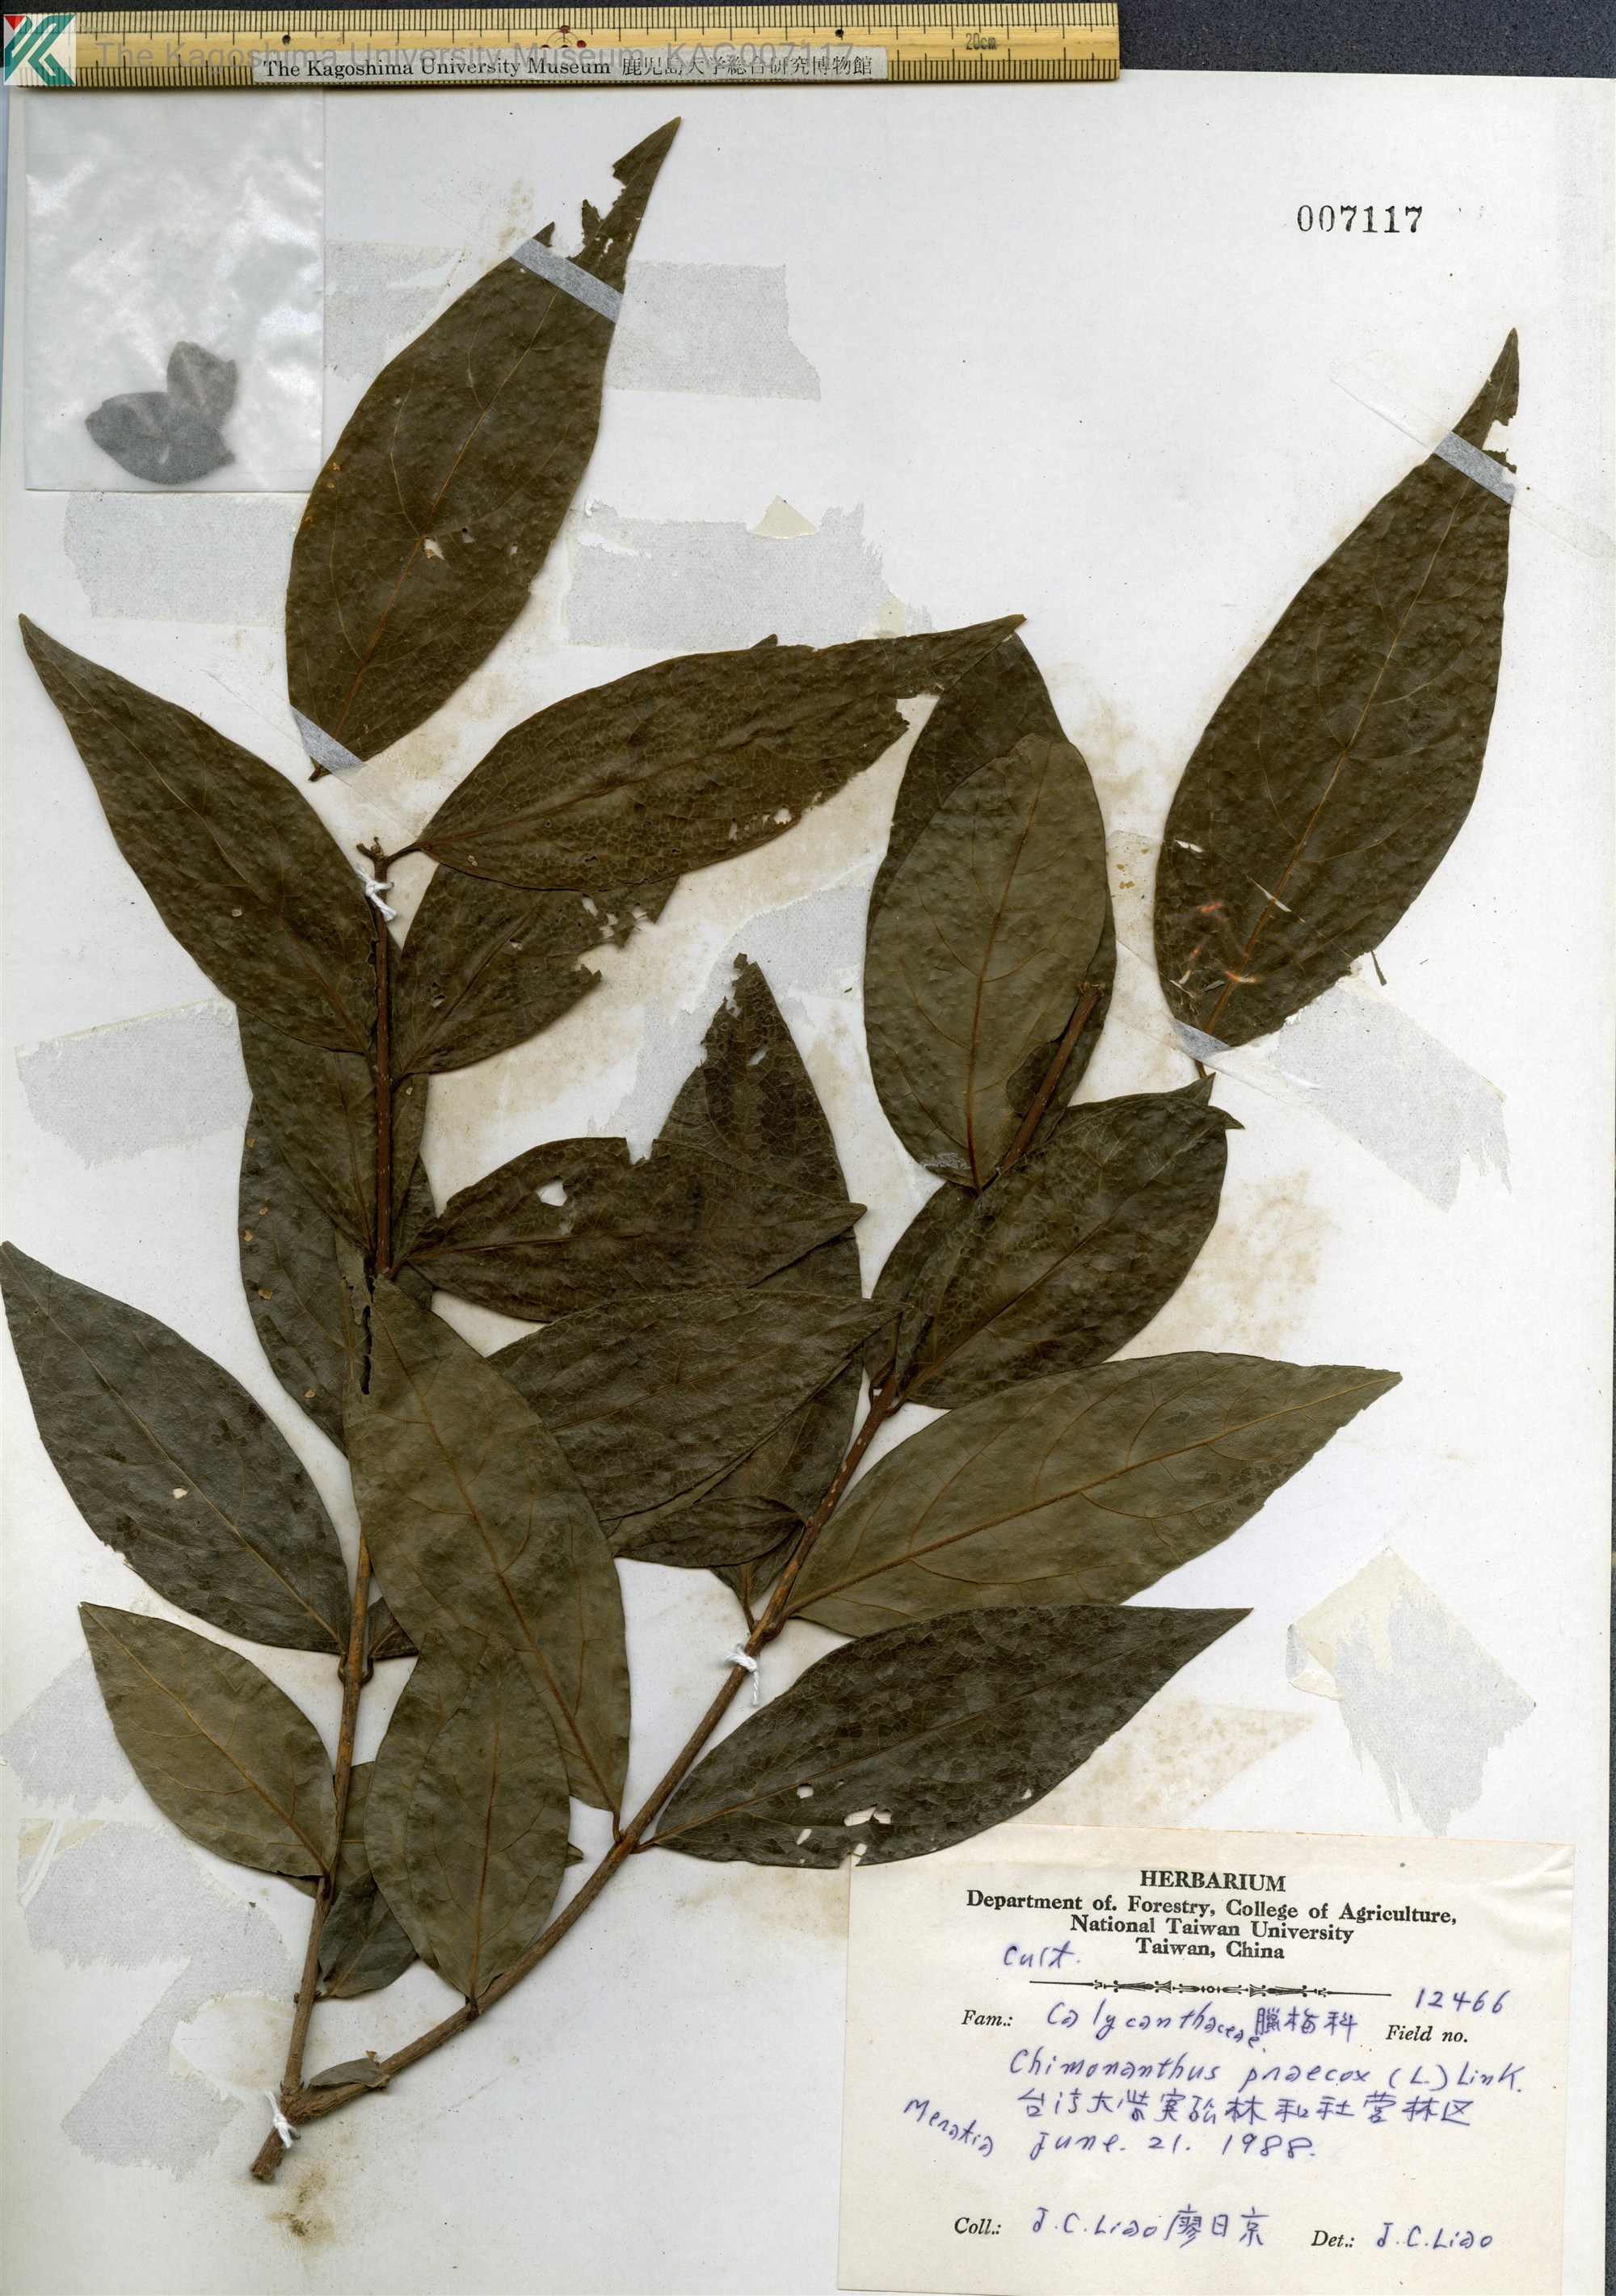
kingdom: Plantae
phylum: Tracheophyta
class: Magnoliopsida
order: Laurales
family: Calycanthaceae
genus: Chimonanthus
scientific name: Chimonanthus praecox
